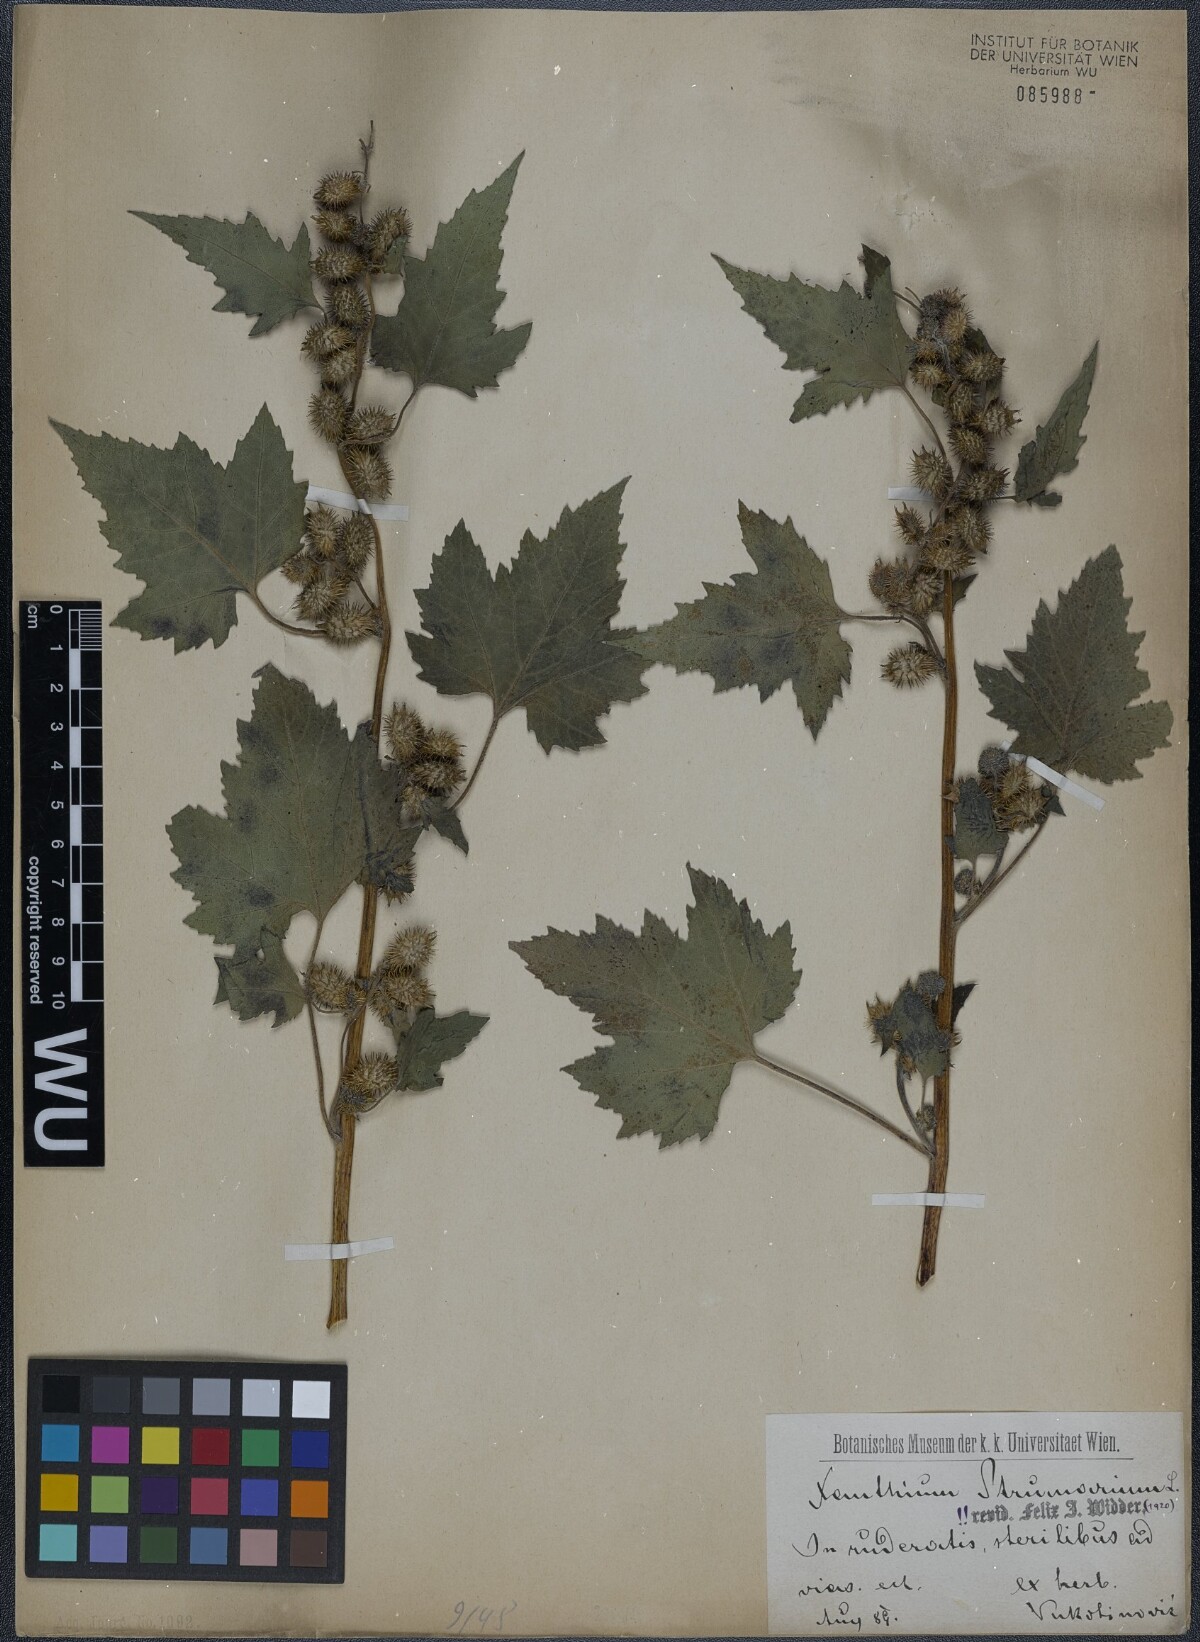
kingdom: Plantae
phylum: Tracheophyta
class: Magnoliopsida
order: Asterales
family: Asteraceae
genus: Xanthium
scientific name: Xanthium strumarium
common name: Rough cocklebur
